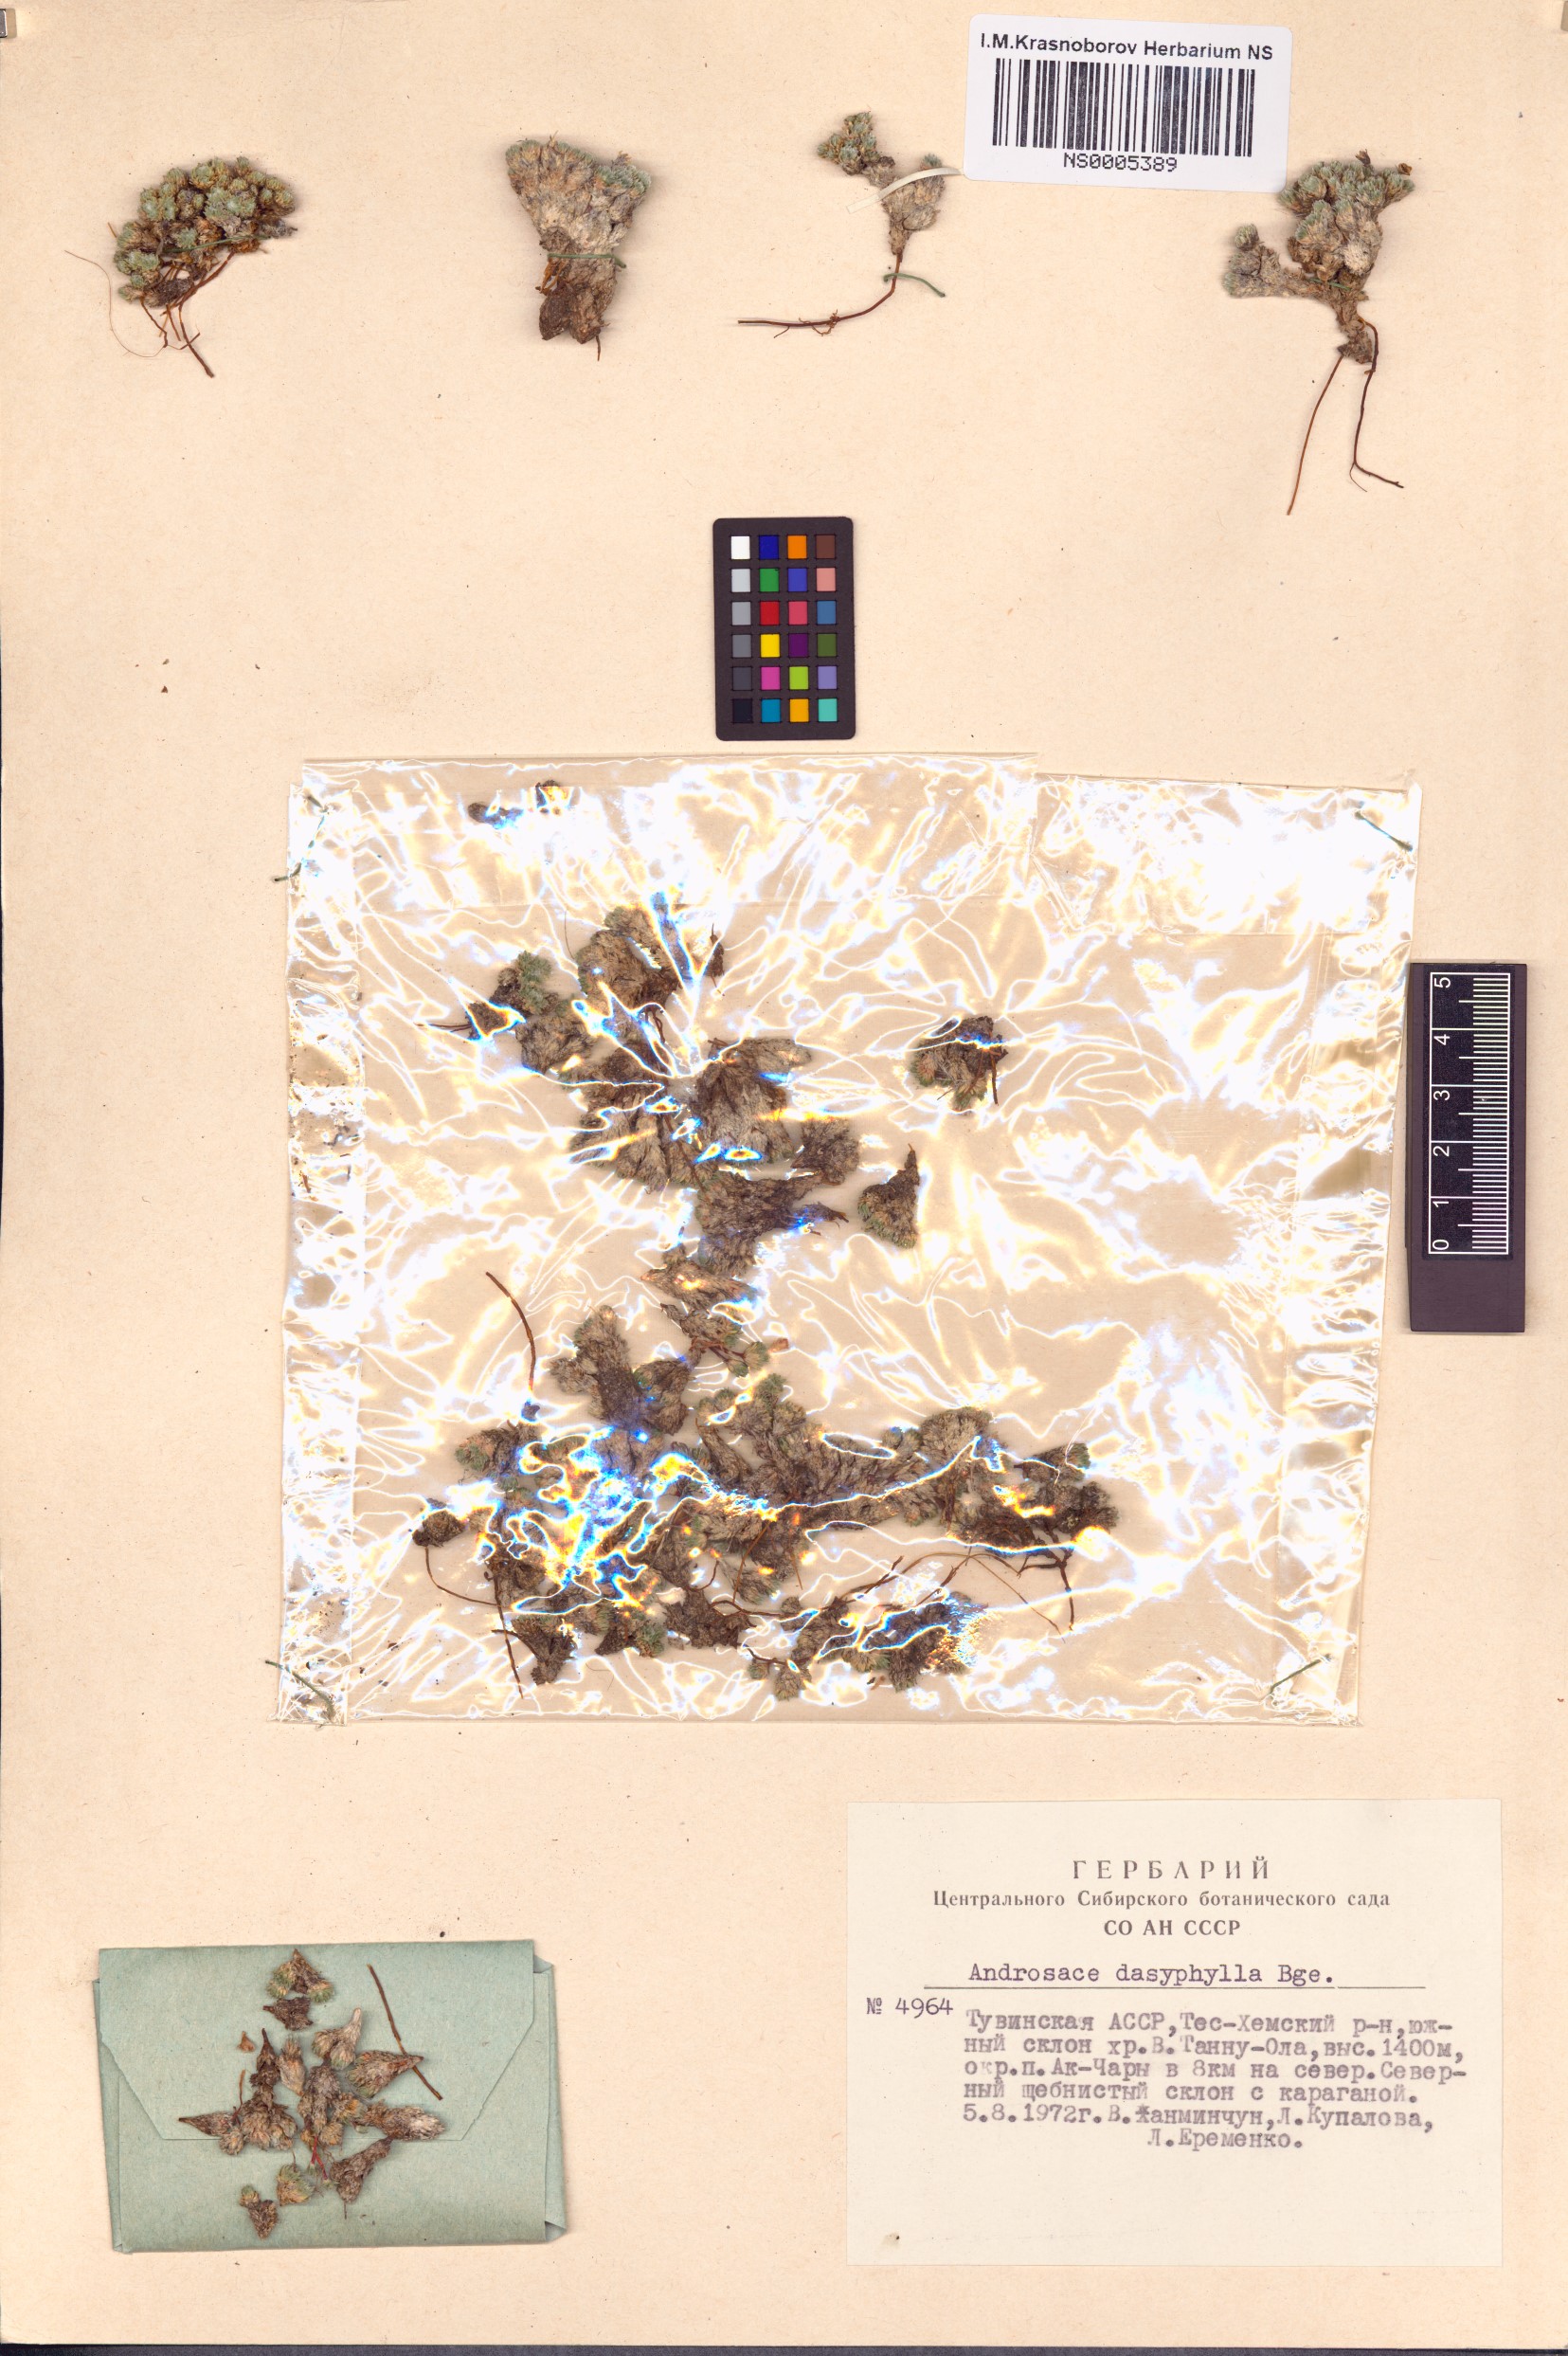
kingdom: Plantae
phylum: Tracheophyta
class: Magnoliopsida
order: Ericales
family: Primulaceae
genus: Androsace
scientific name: Androsace dasyphylla
